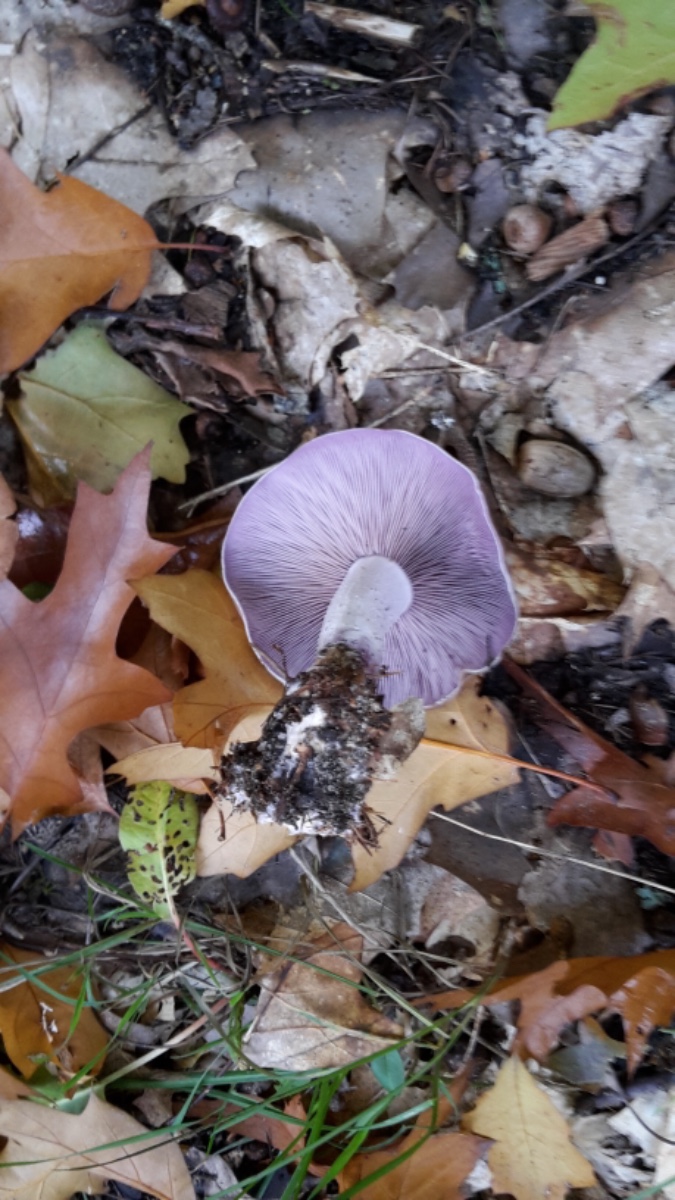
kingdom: Fungi
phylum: Basidiomycota
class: Agaricomycetes
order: Agaricales
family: Tricholomataceae
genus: Lepista
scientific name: Lepista nuda
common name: violet hekseringshat
